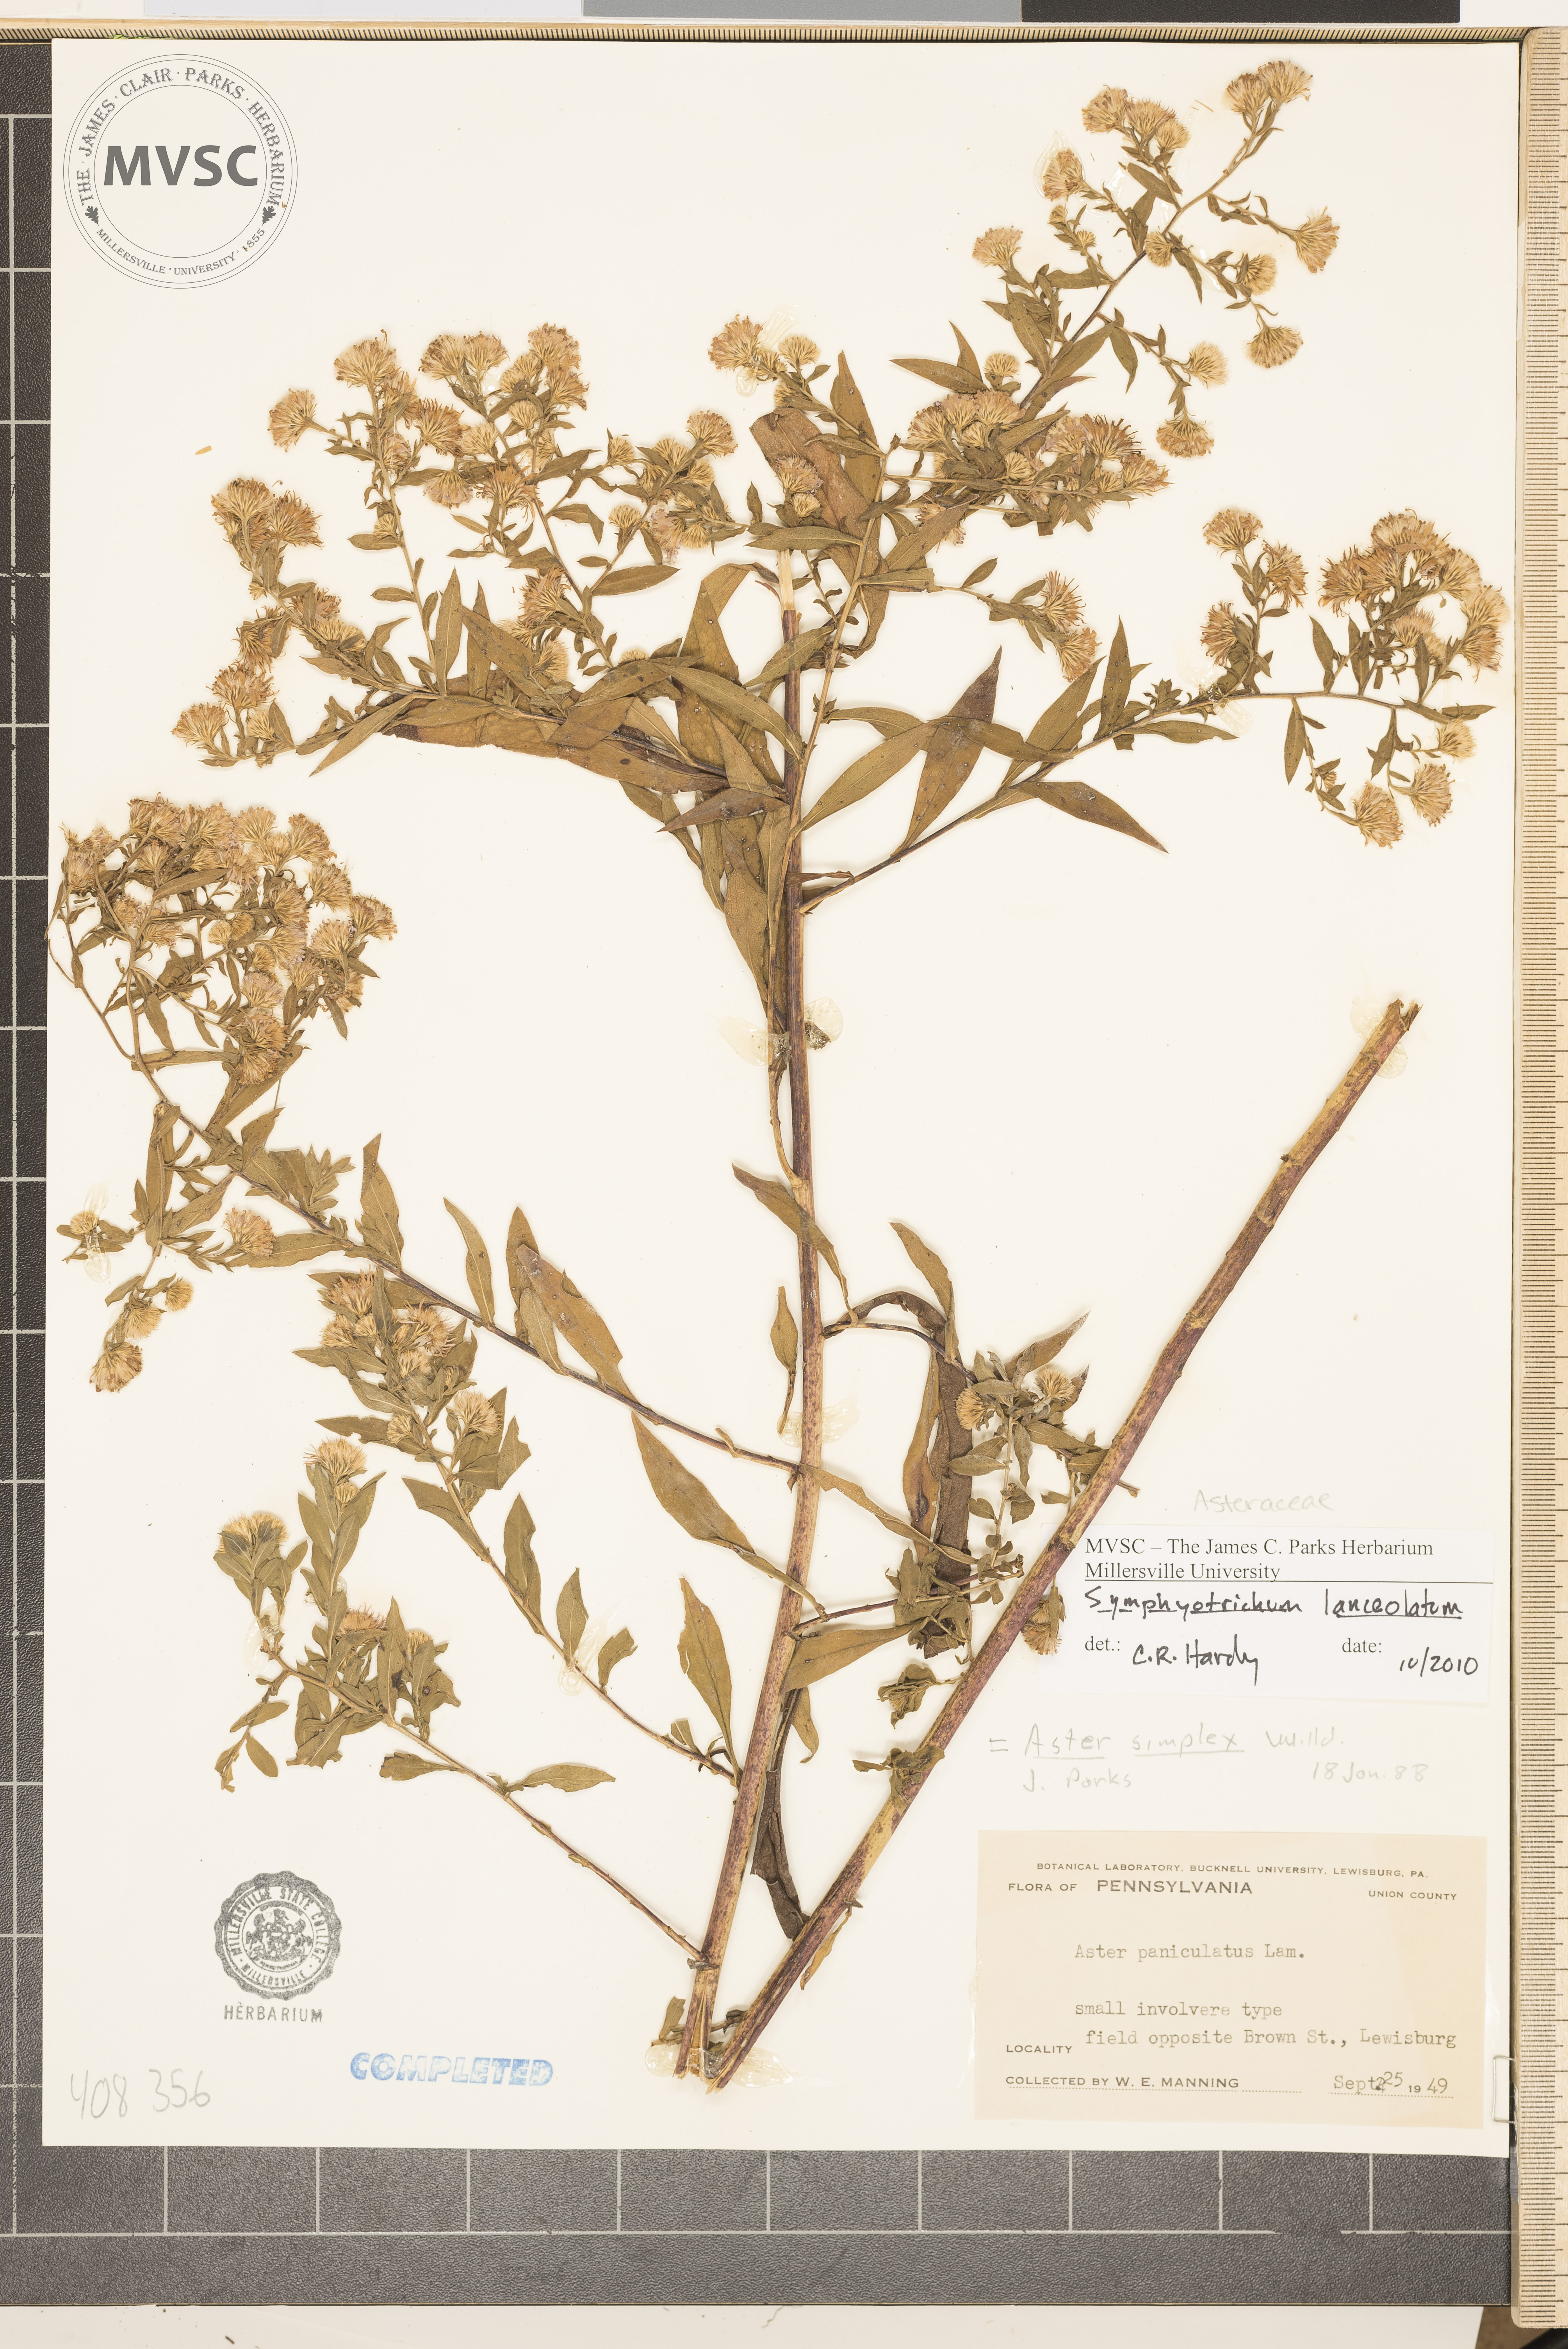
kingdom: Plantae
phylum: Tracheophyta
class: Magnoliopsida
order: Asterales
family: Asteraceae
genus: Symphyotrichum
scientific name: Symphyotrichum lanceolatum
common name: Panicled aster
